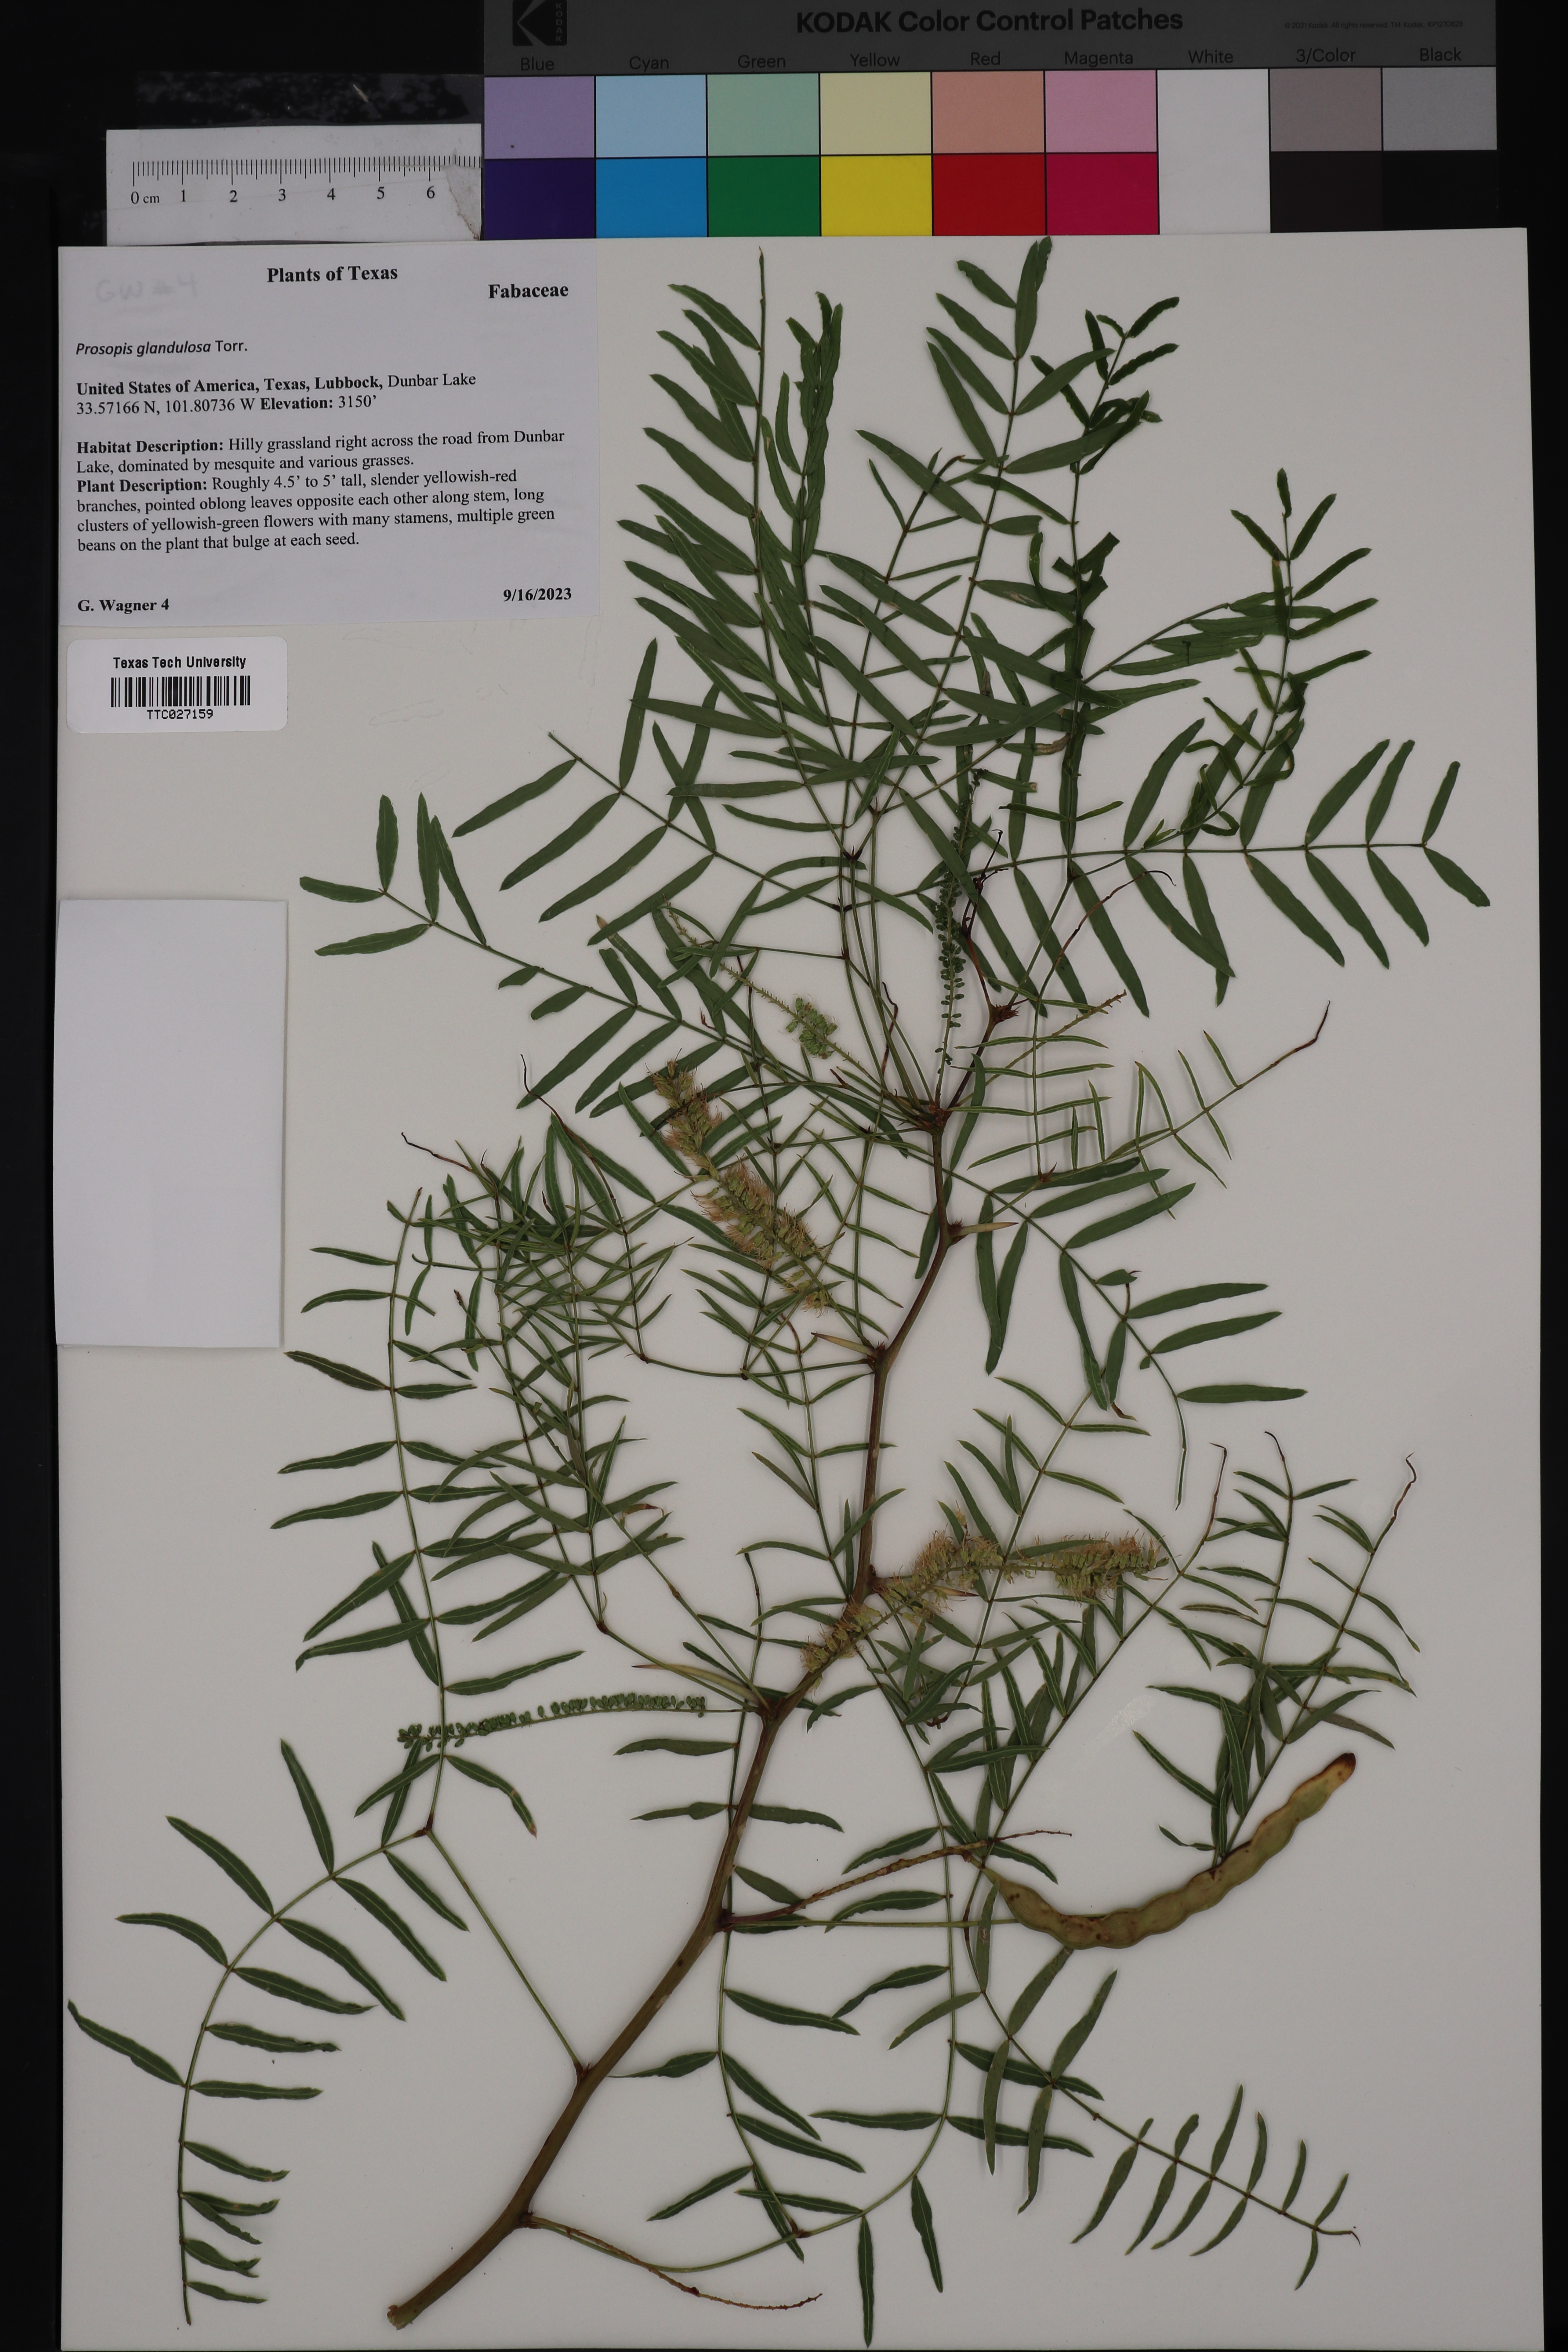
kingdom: Plantae
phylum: Tracheophyta
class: Magnoliopsida
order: Fabales
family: Fabaceae
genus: Prosopis
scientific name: Prosopis glandulosa
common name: Honey mesquite
